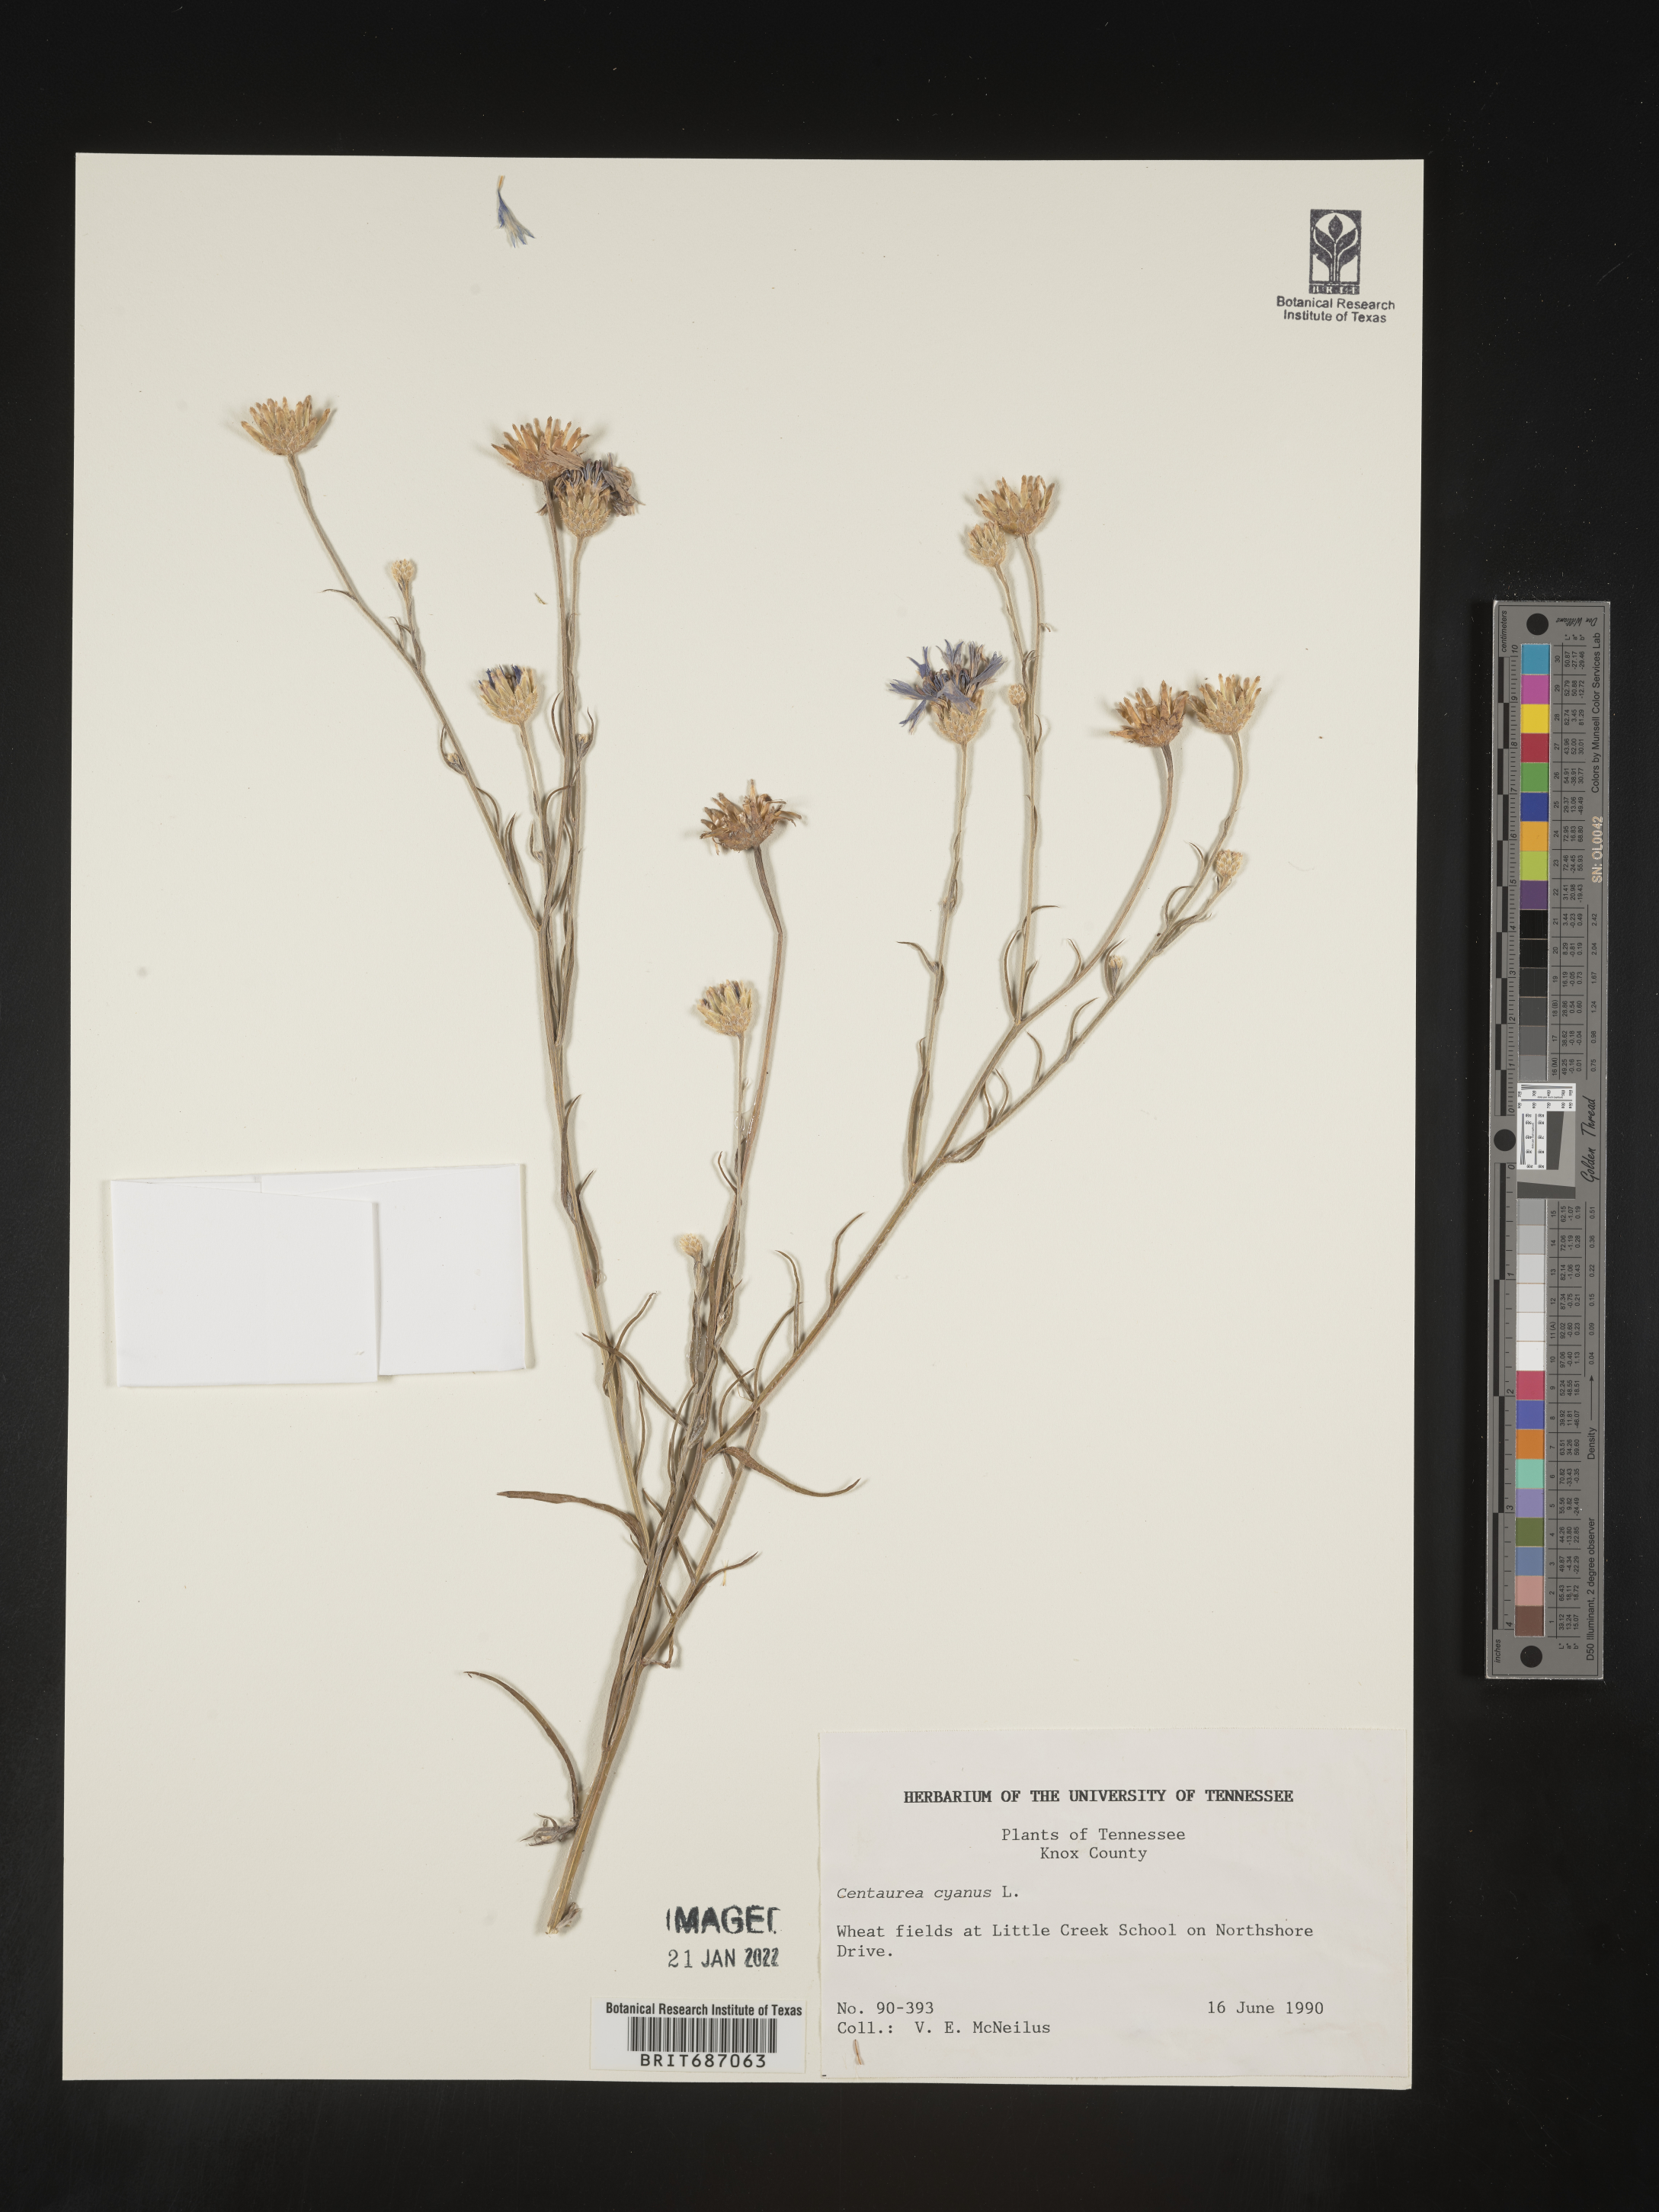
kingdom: Plantae
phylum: Tracheophyta
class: Magnoliopsida
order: Asterales
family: Asteraceae
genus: Centaurea
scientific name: Centaurea cyanus
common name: Cornflower
